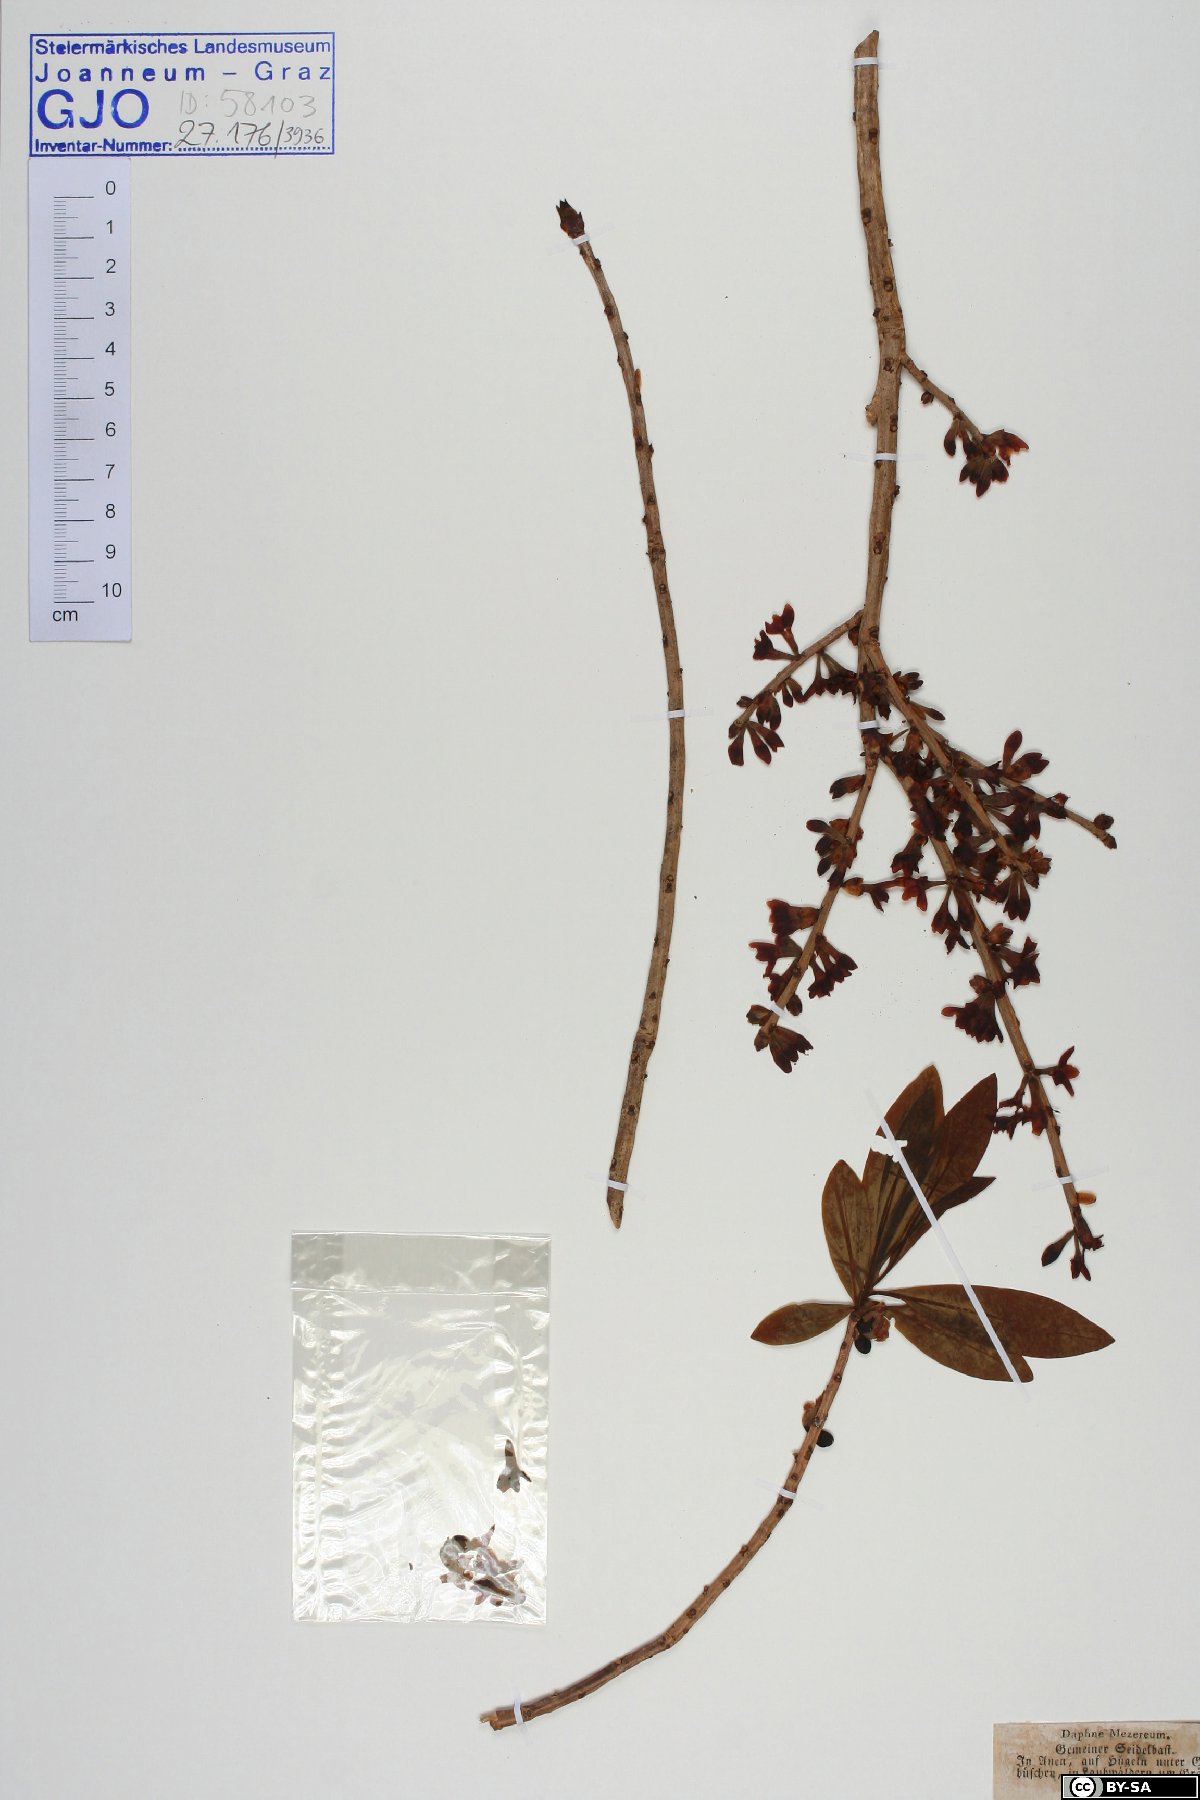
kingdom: Plantae
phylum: Tracheophyta
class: Magnoliopsida
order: Malvales
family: Thymelaeaceae
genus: Daphne
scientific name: Daphne mezereum
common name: Mezereon
